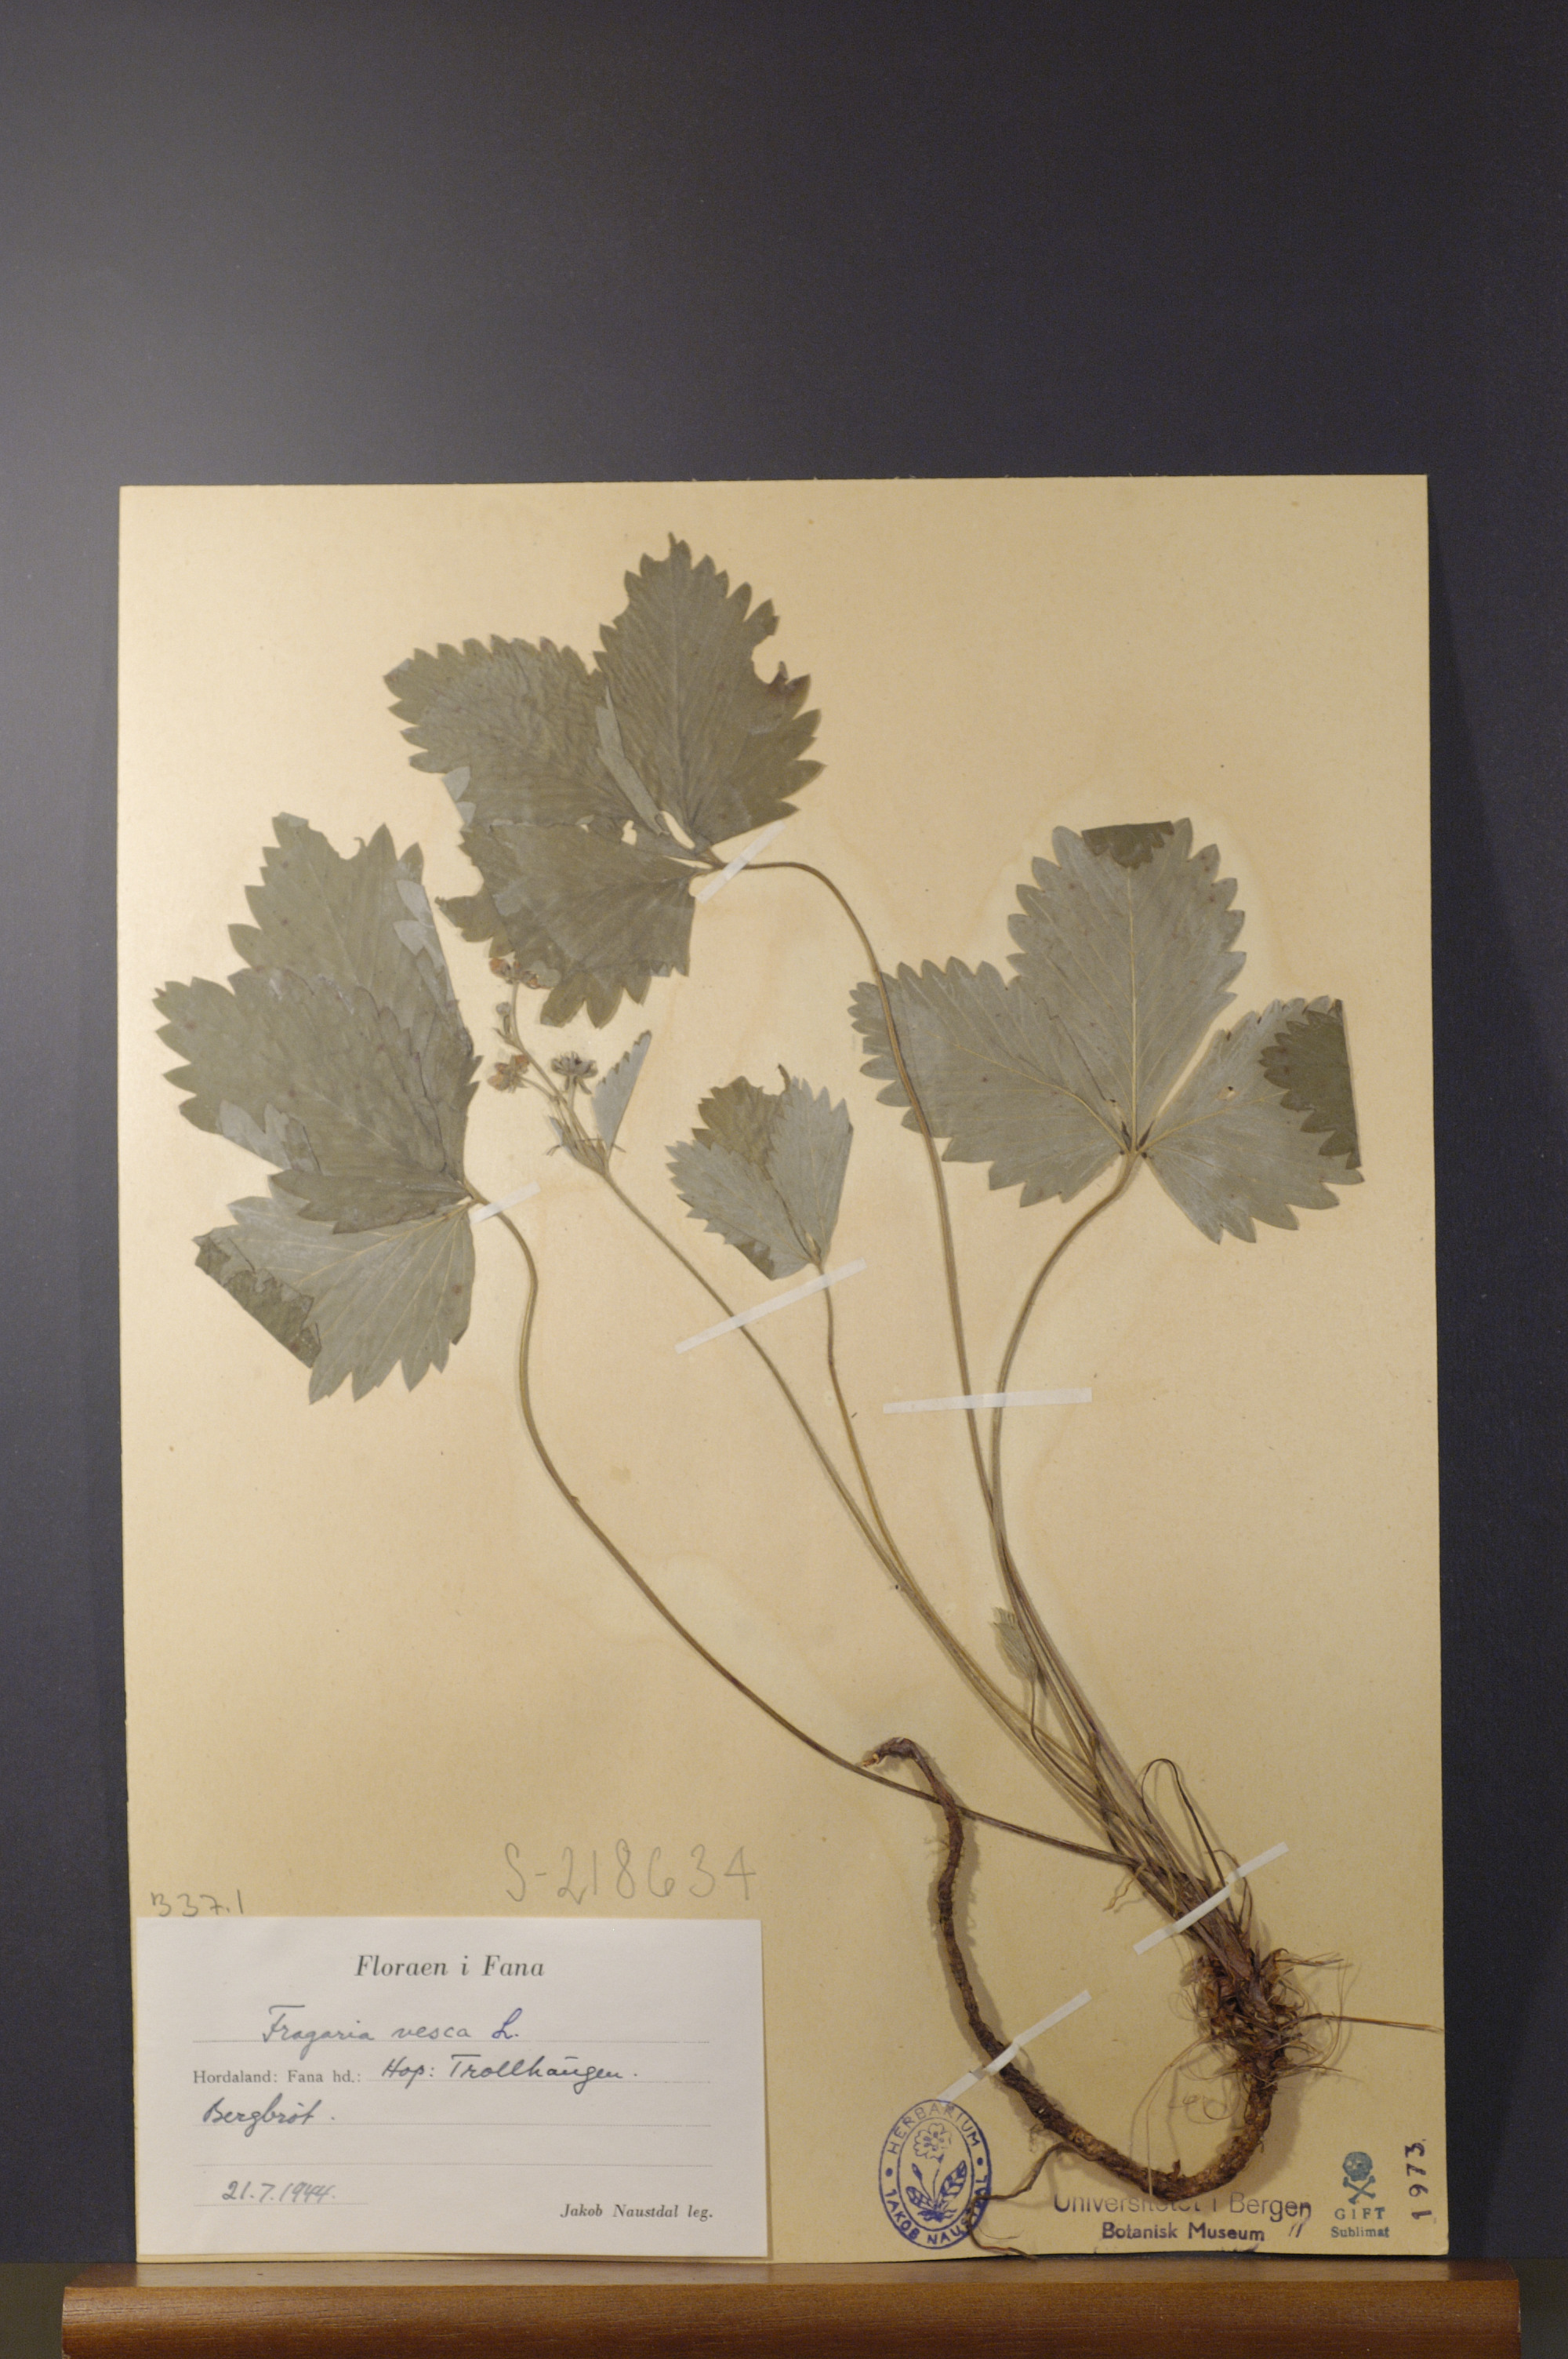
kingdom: Plantae
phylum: Tracheophyta
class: Magnoliopsida
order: Rosales
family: Rosaceae
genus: Fragaria
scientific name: Fragaria vesca
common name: Wild strawberry
